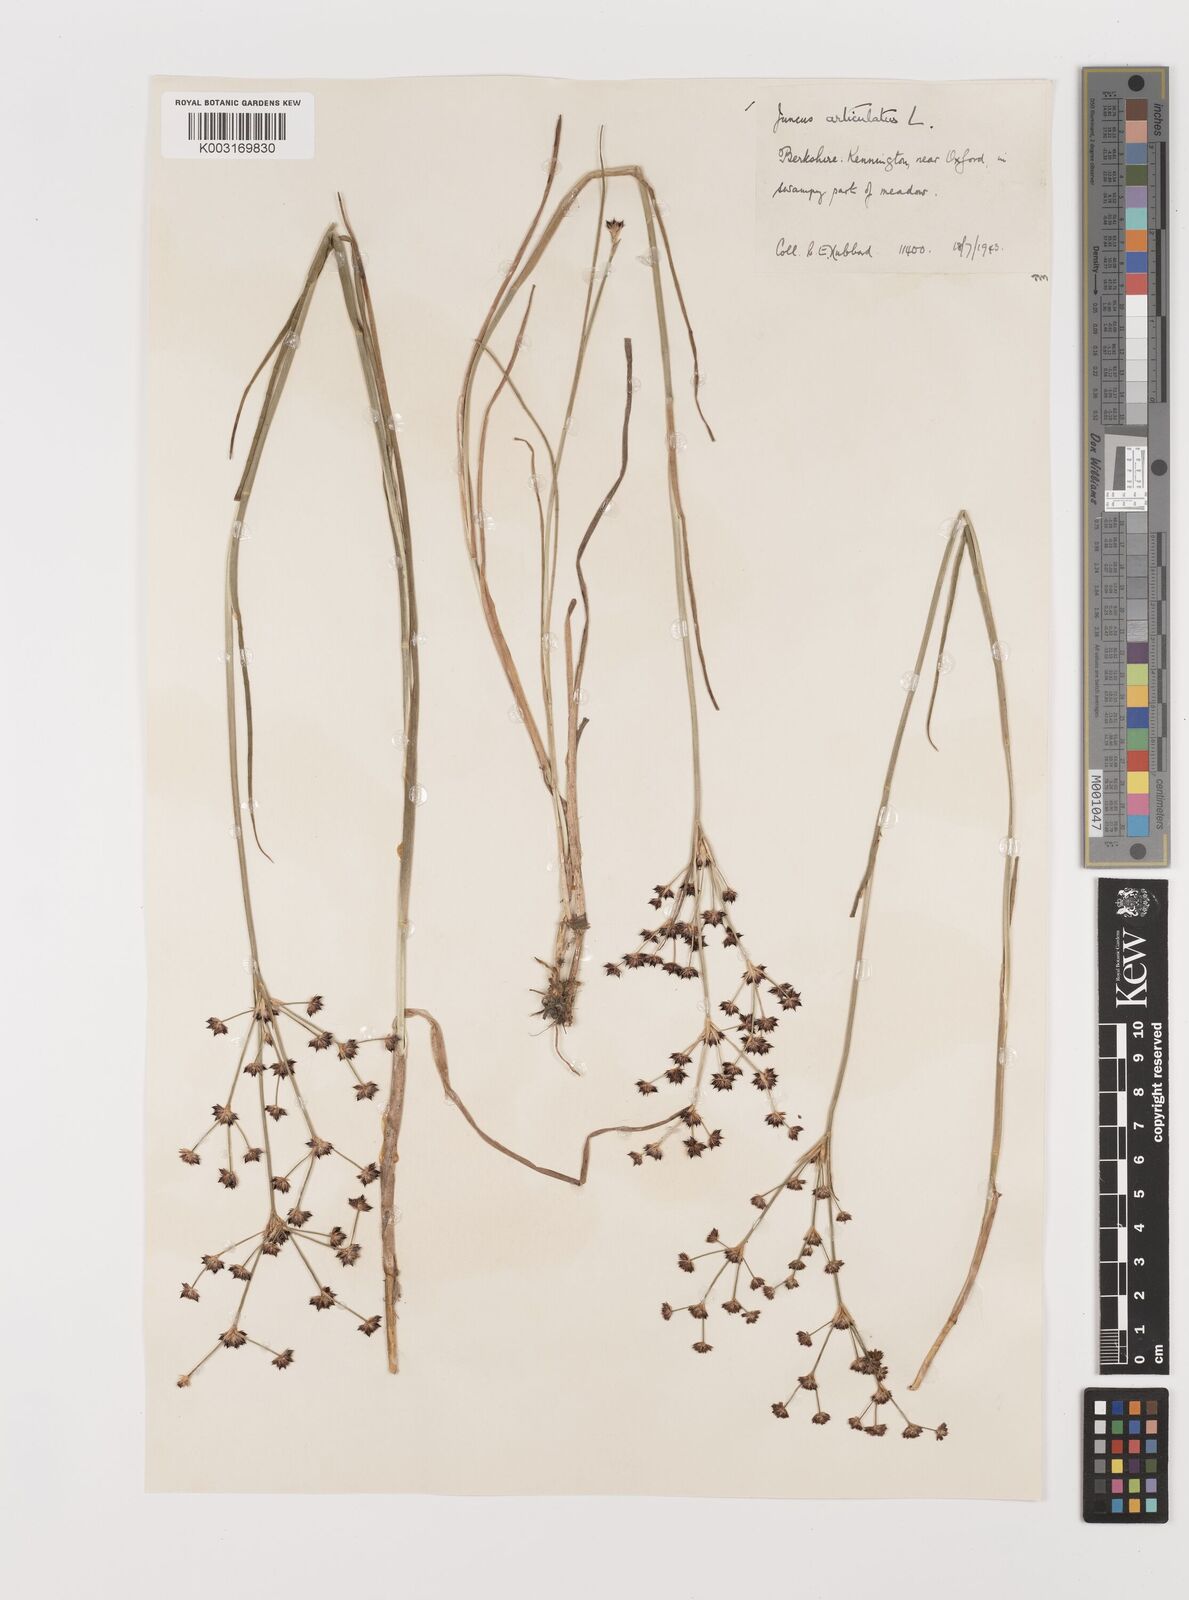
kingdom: Plantae
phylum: Tracheophyta
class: Liliopsida
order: Poales
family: Juncaceae
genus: Juncus
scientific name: Juncus articulatus
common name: Jointed rush
